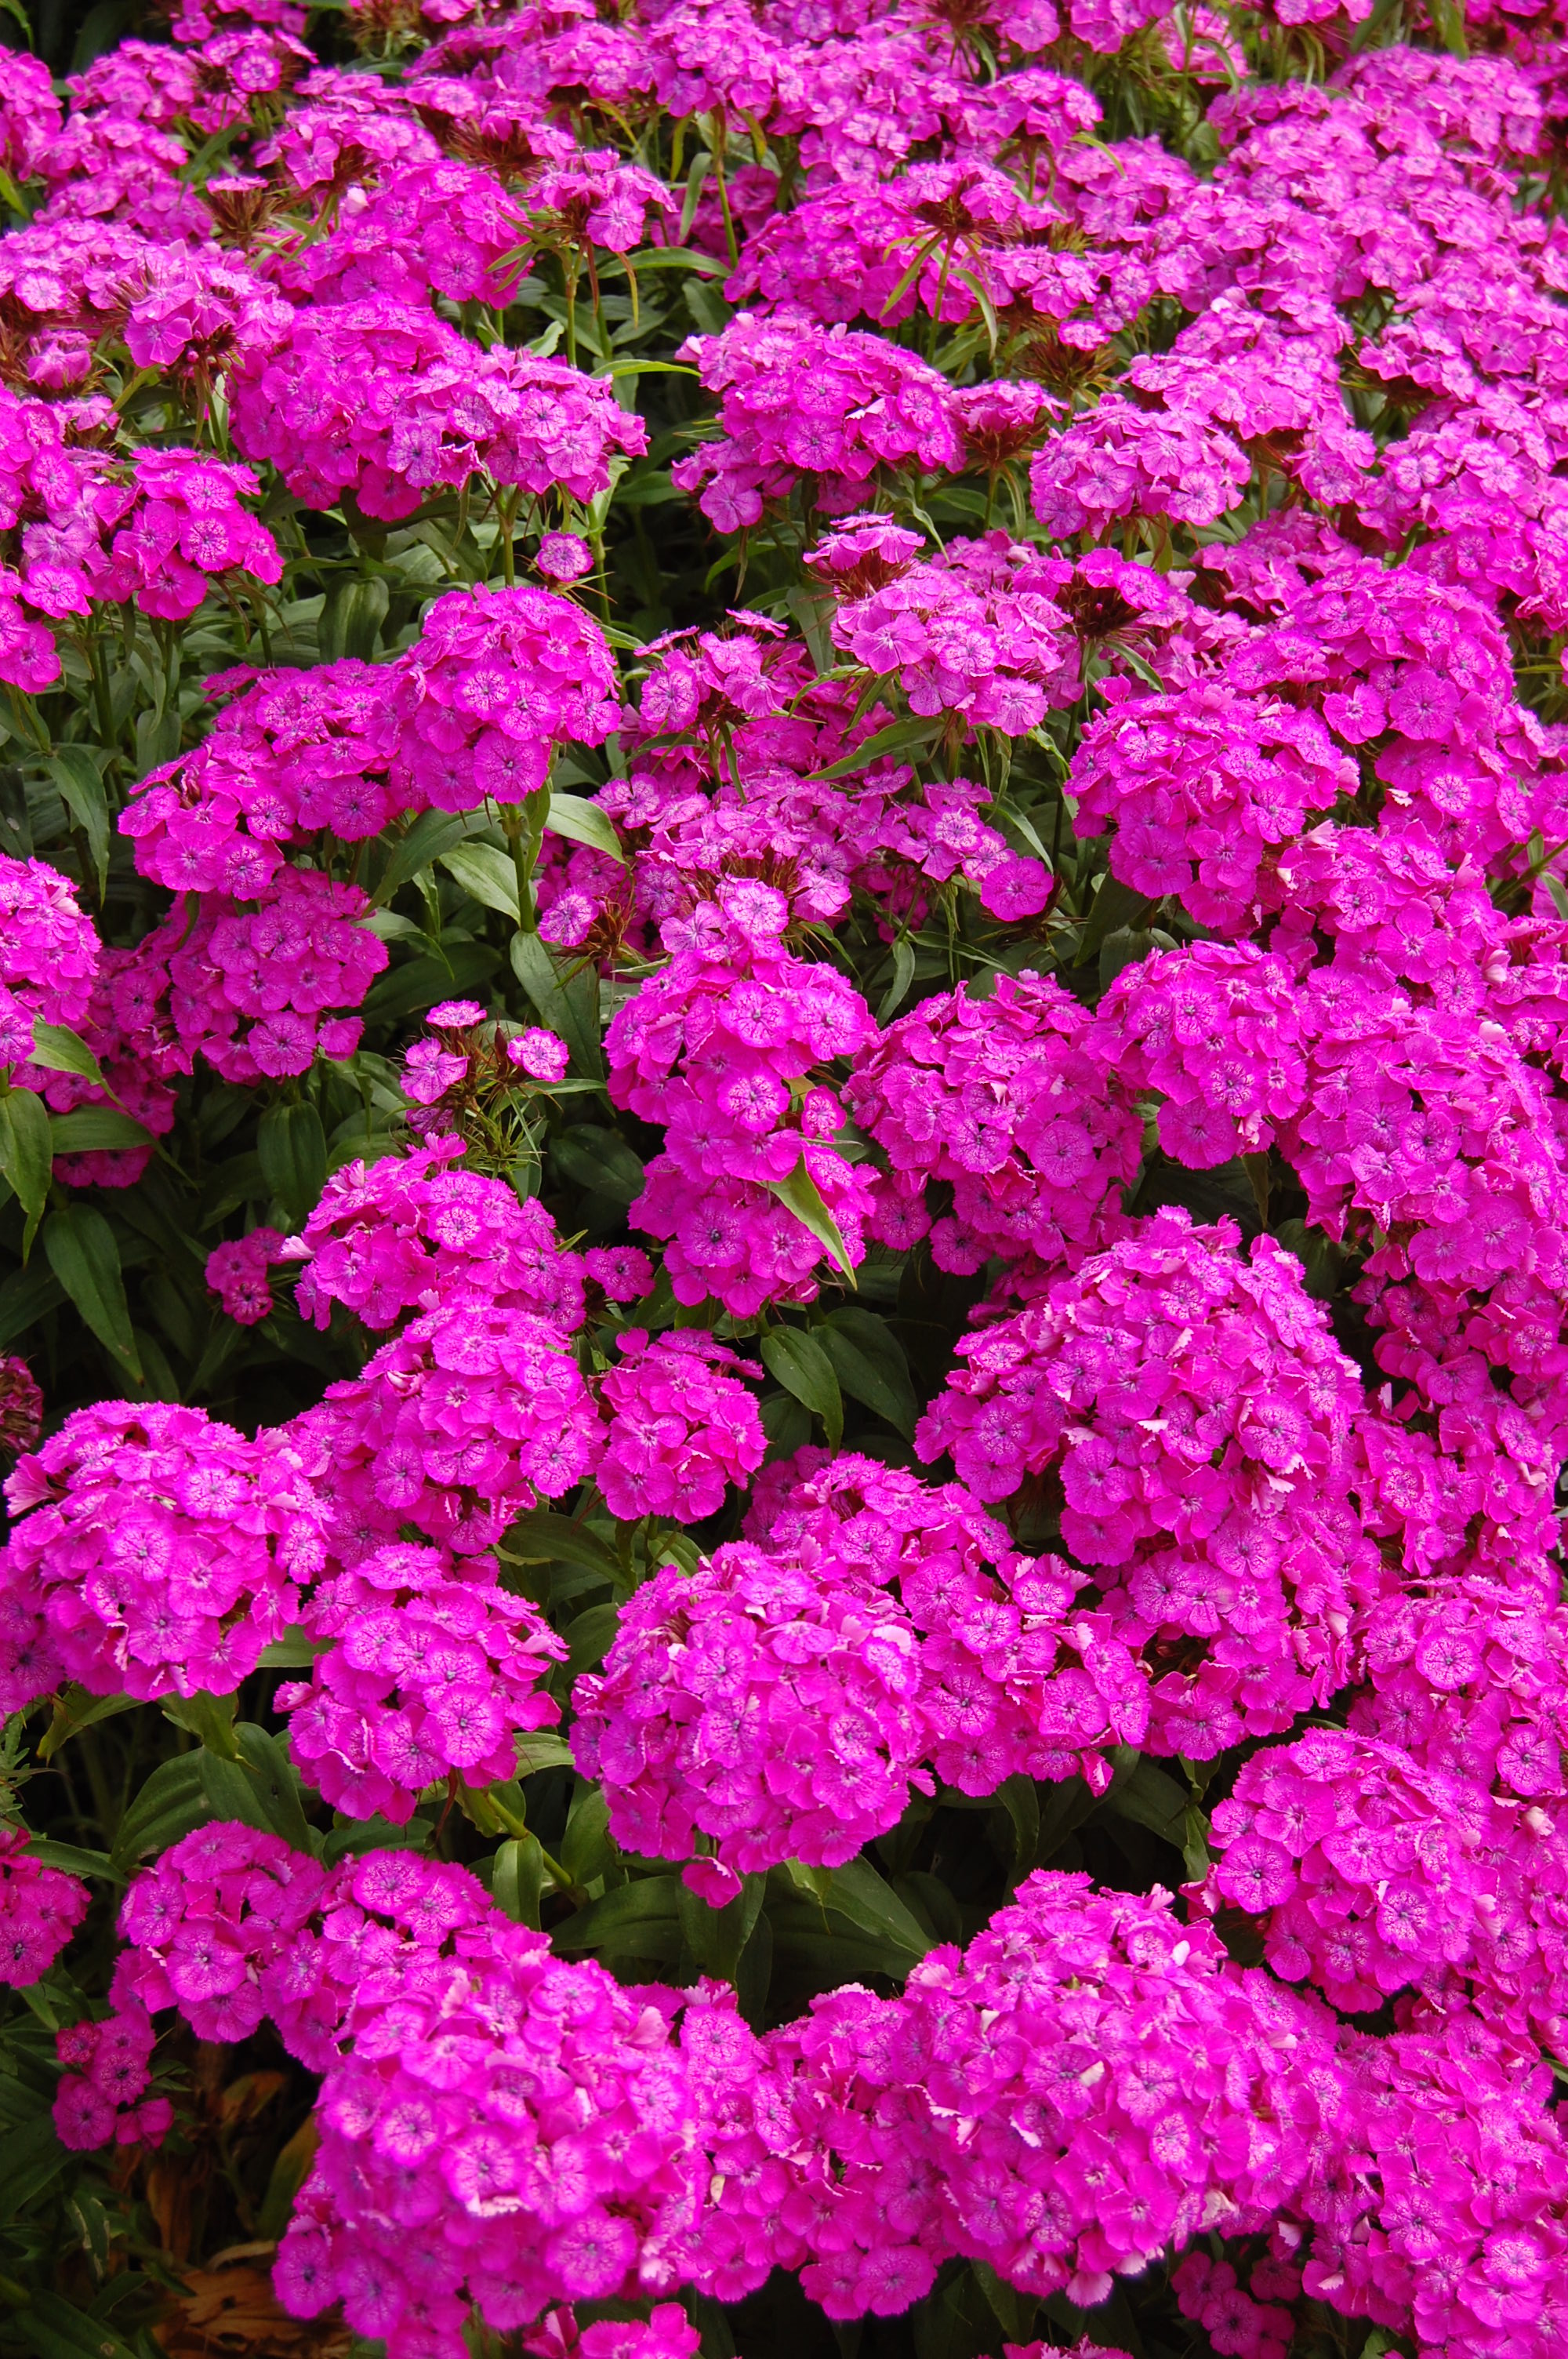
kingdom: Plantae
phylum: Tracheophyta
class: Magnoliopsida
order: Caryophyllales
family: Caryophyllaceae
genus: Dianthus
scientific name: Dianthus barbatus
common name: Sweet-william
